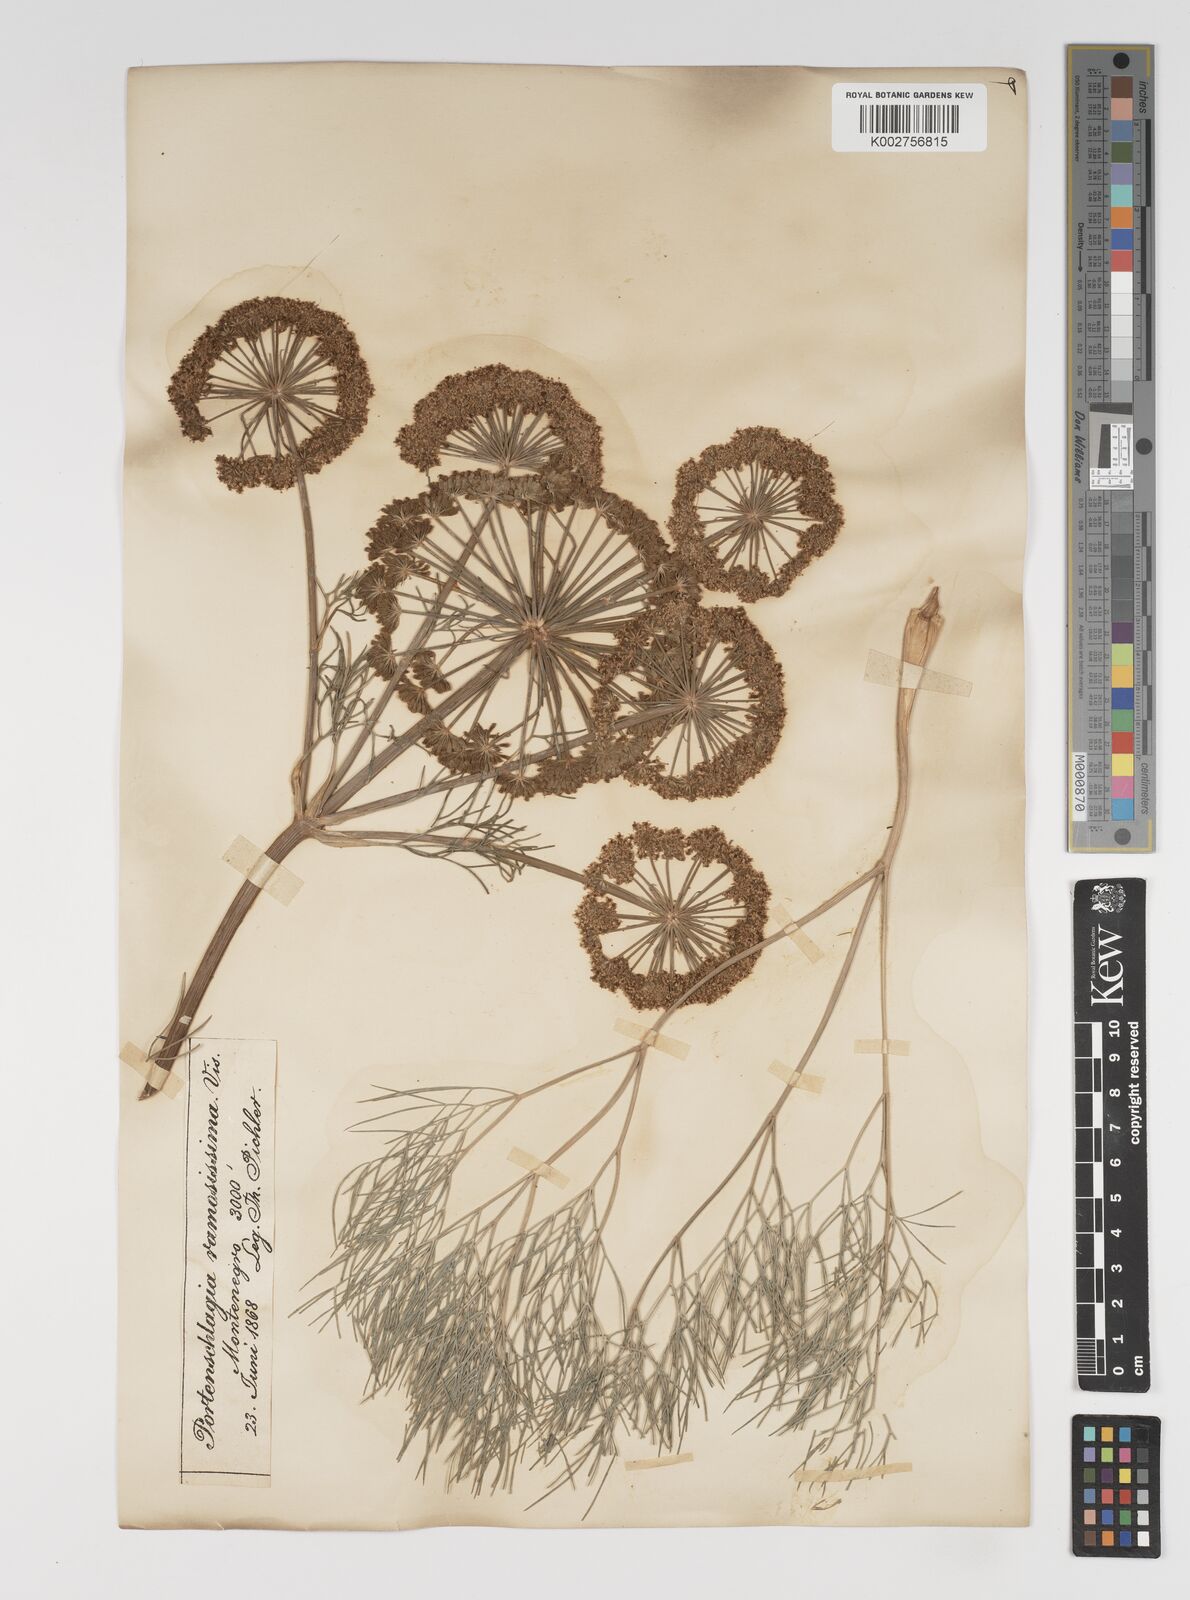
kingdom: Plantae
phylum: Tracheophyta
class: Magnoliopsida
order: Apiales
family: Apiaceae
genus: Athamanta
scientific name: Athamanta ramosissima
